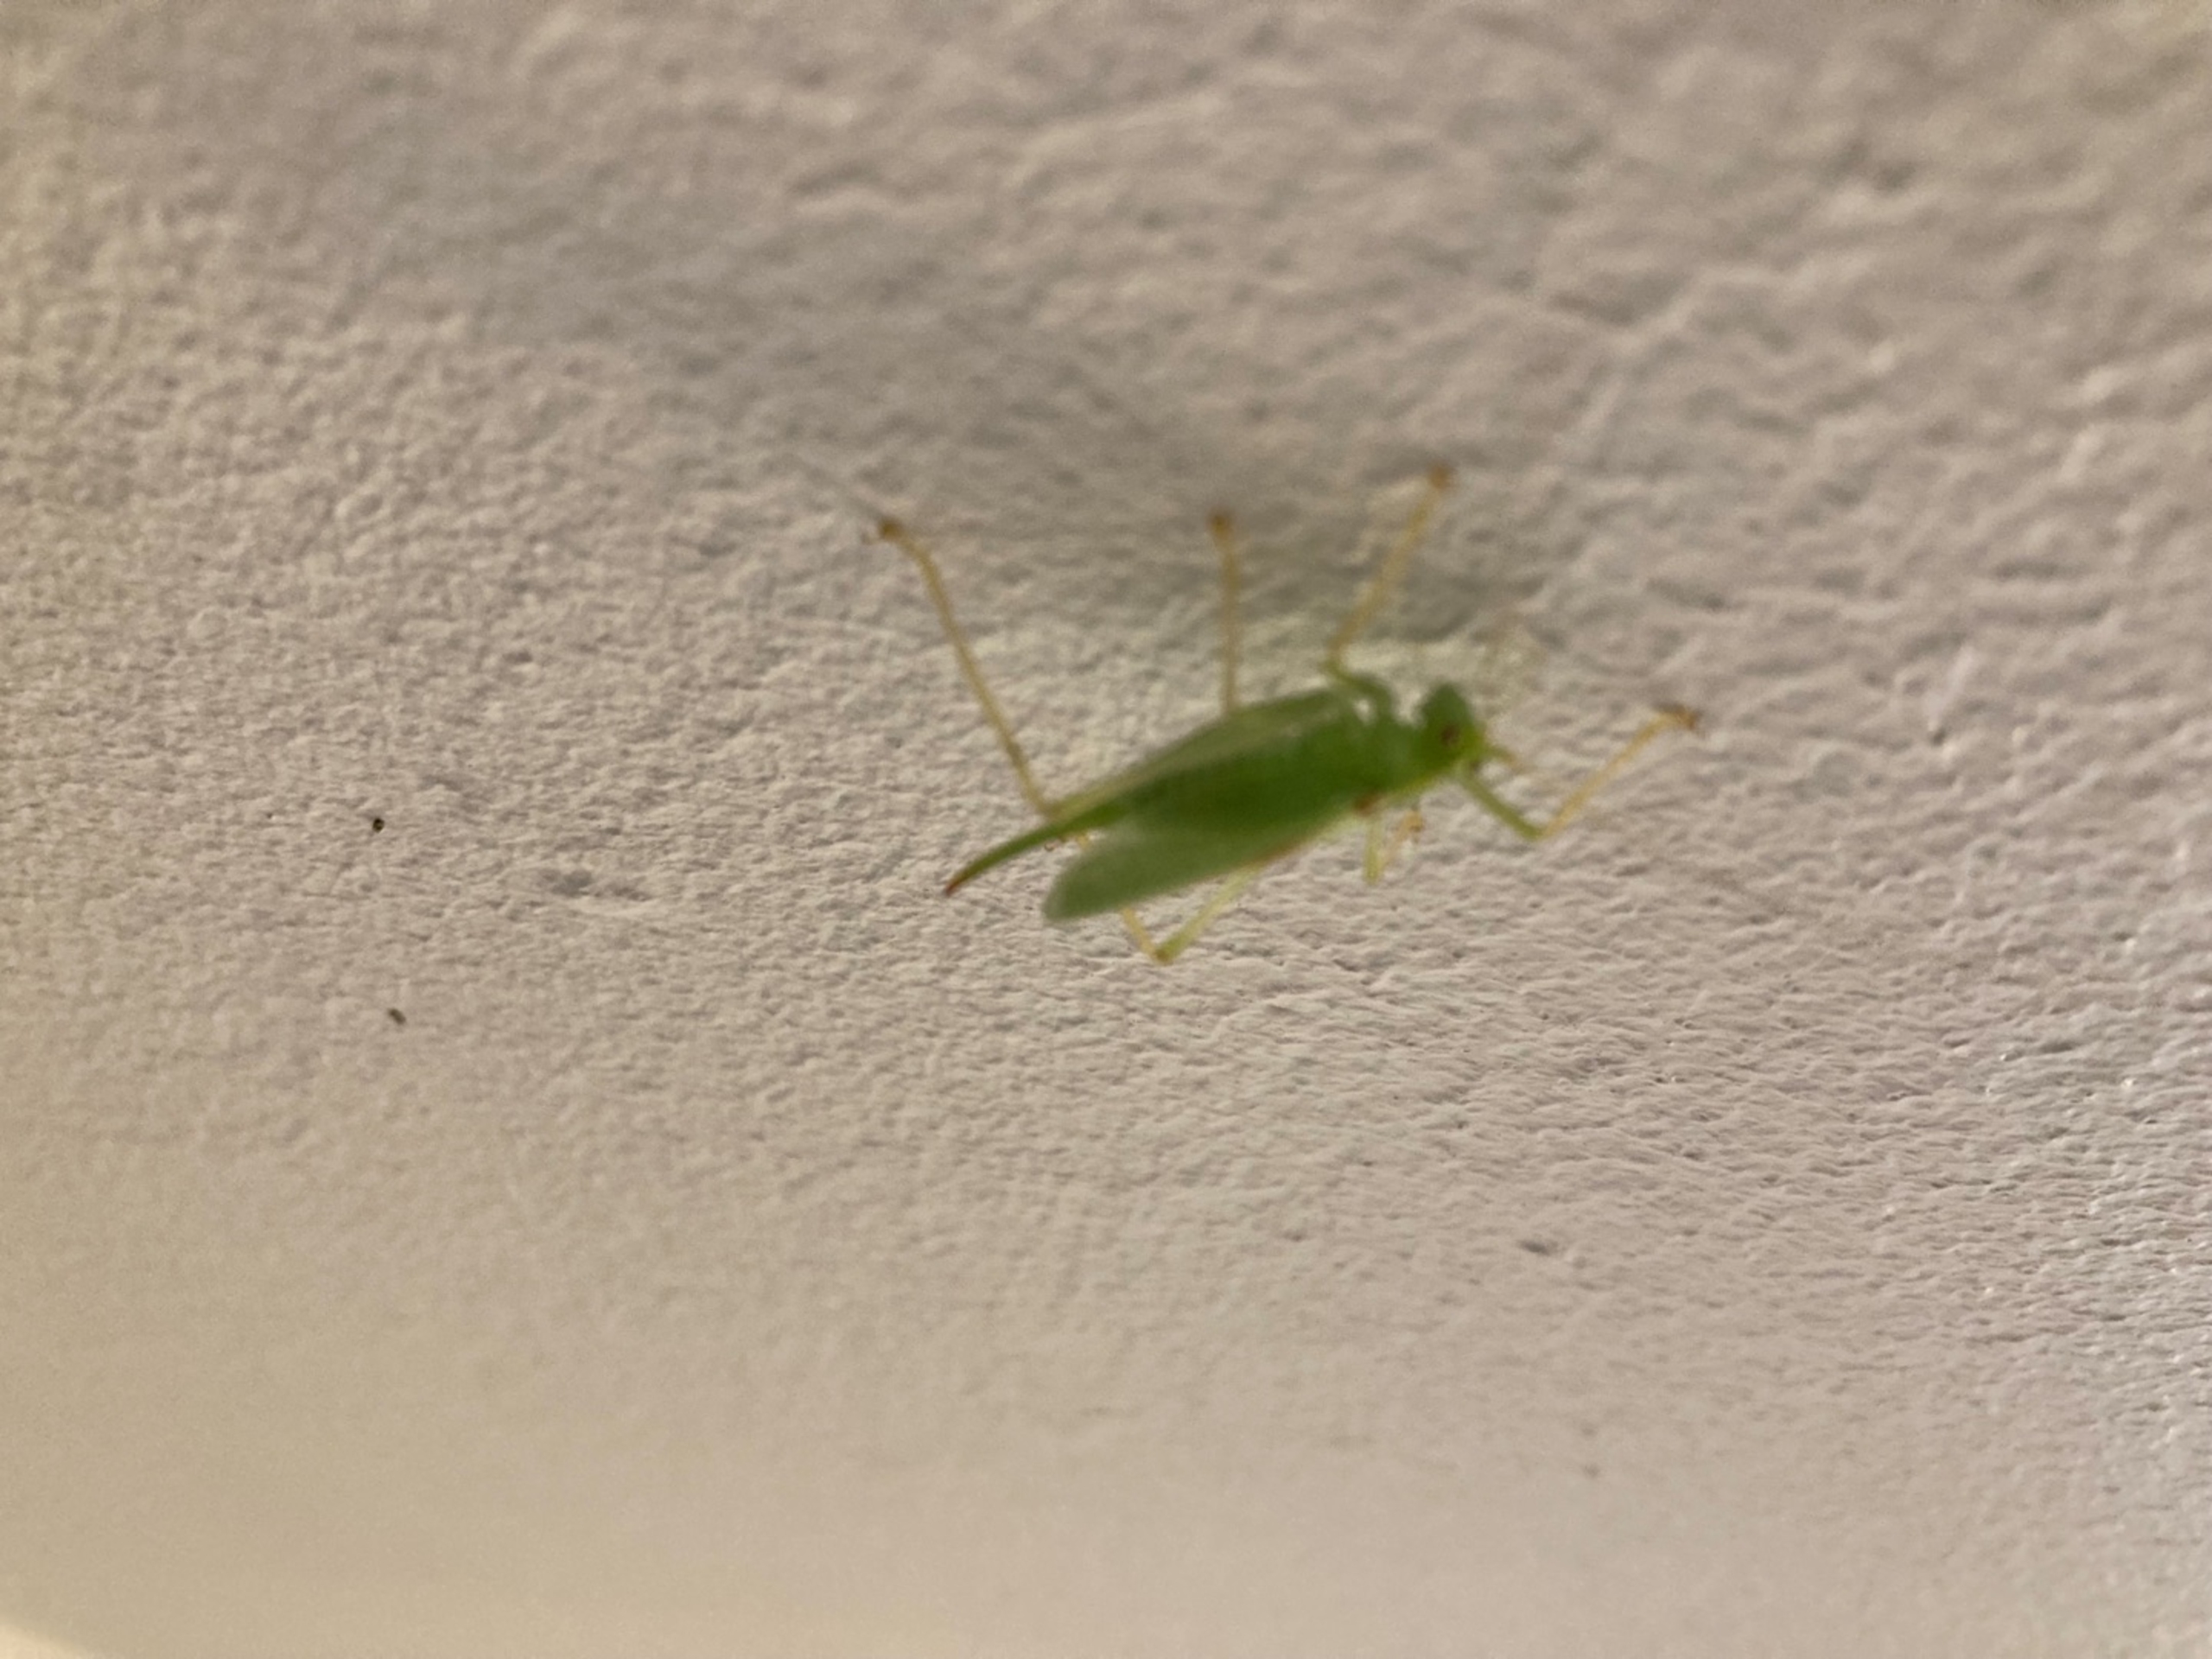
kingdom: Animalia
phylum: Arthropoda
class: Insecta
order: Orthoptera
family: Tettigoniidae
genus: Meconema
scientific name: Meconema thalassinum
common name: Egegræshoppe
